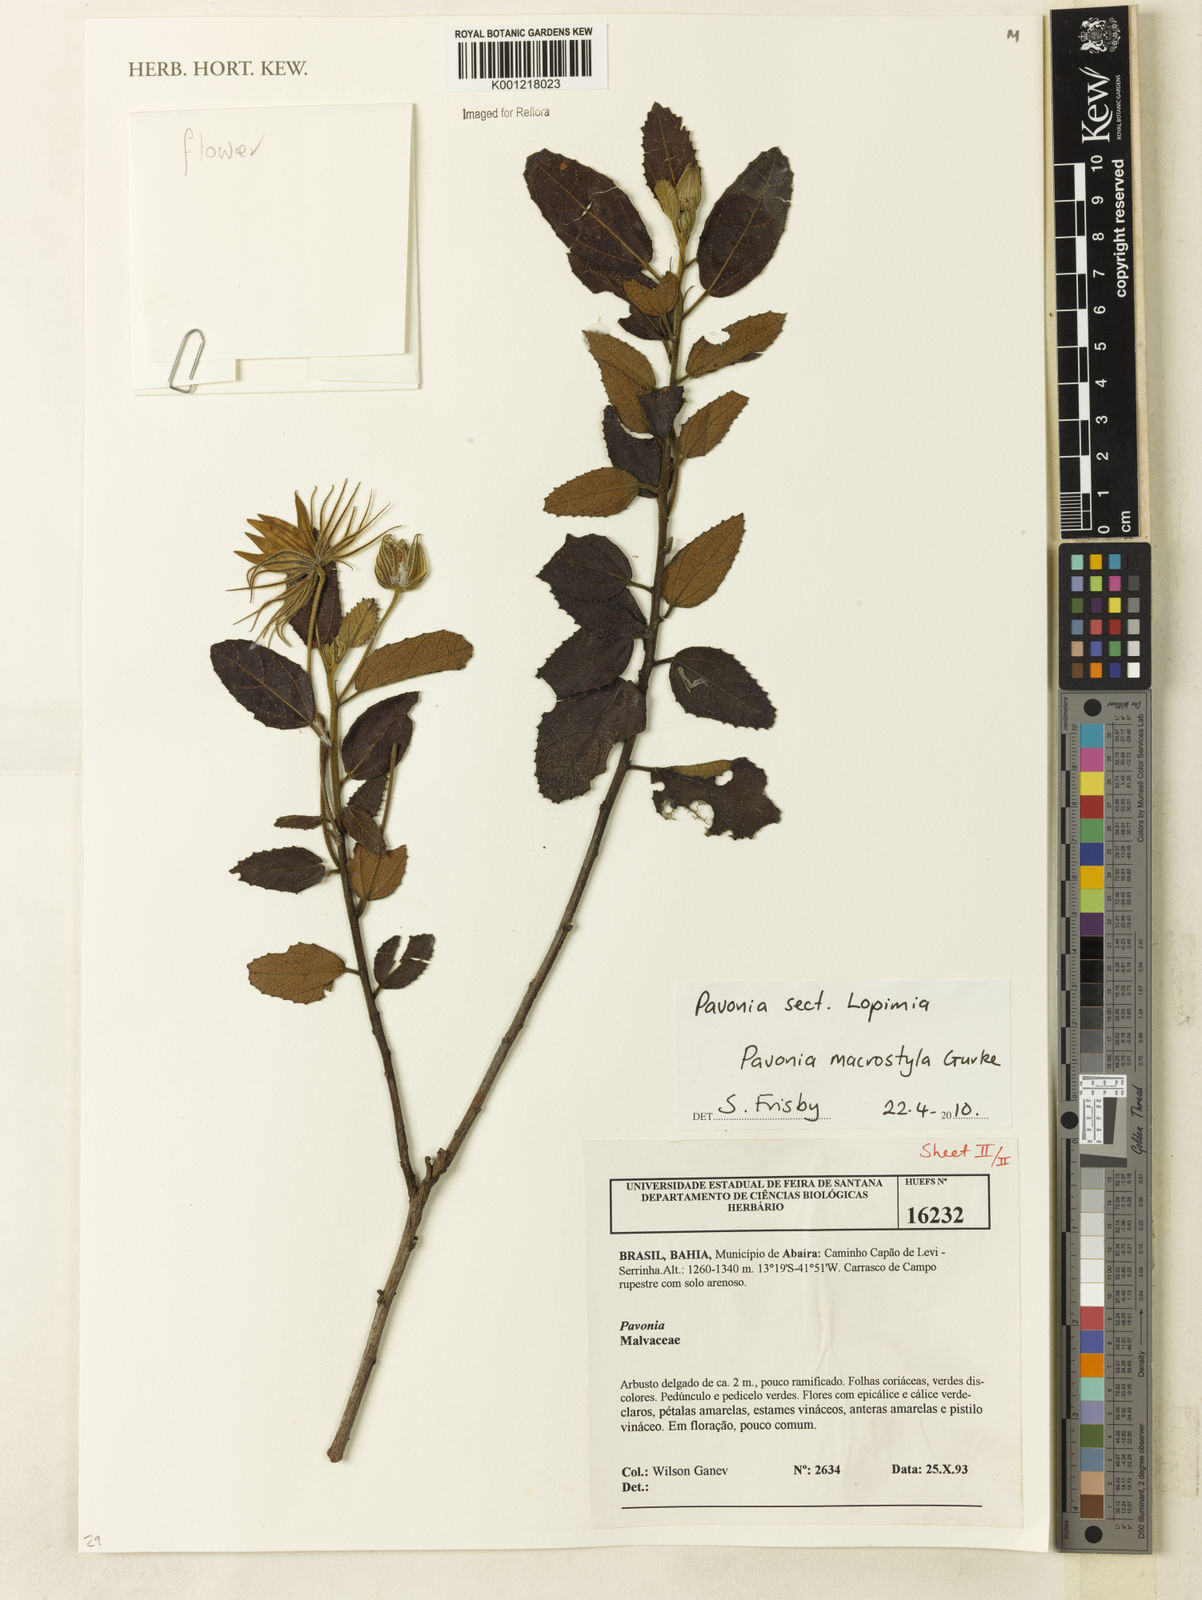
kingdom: Plantae
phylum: Tracheophyta
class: Magnoliopsida
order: Malvales
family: Malvaceae
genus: Pavonia
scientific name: Pavonia
